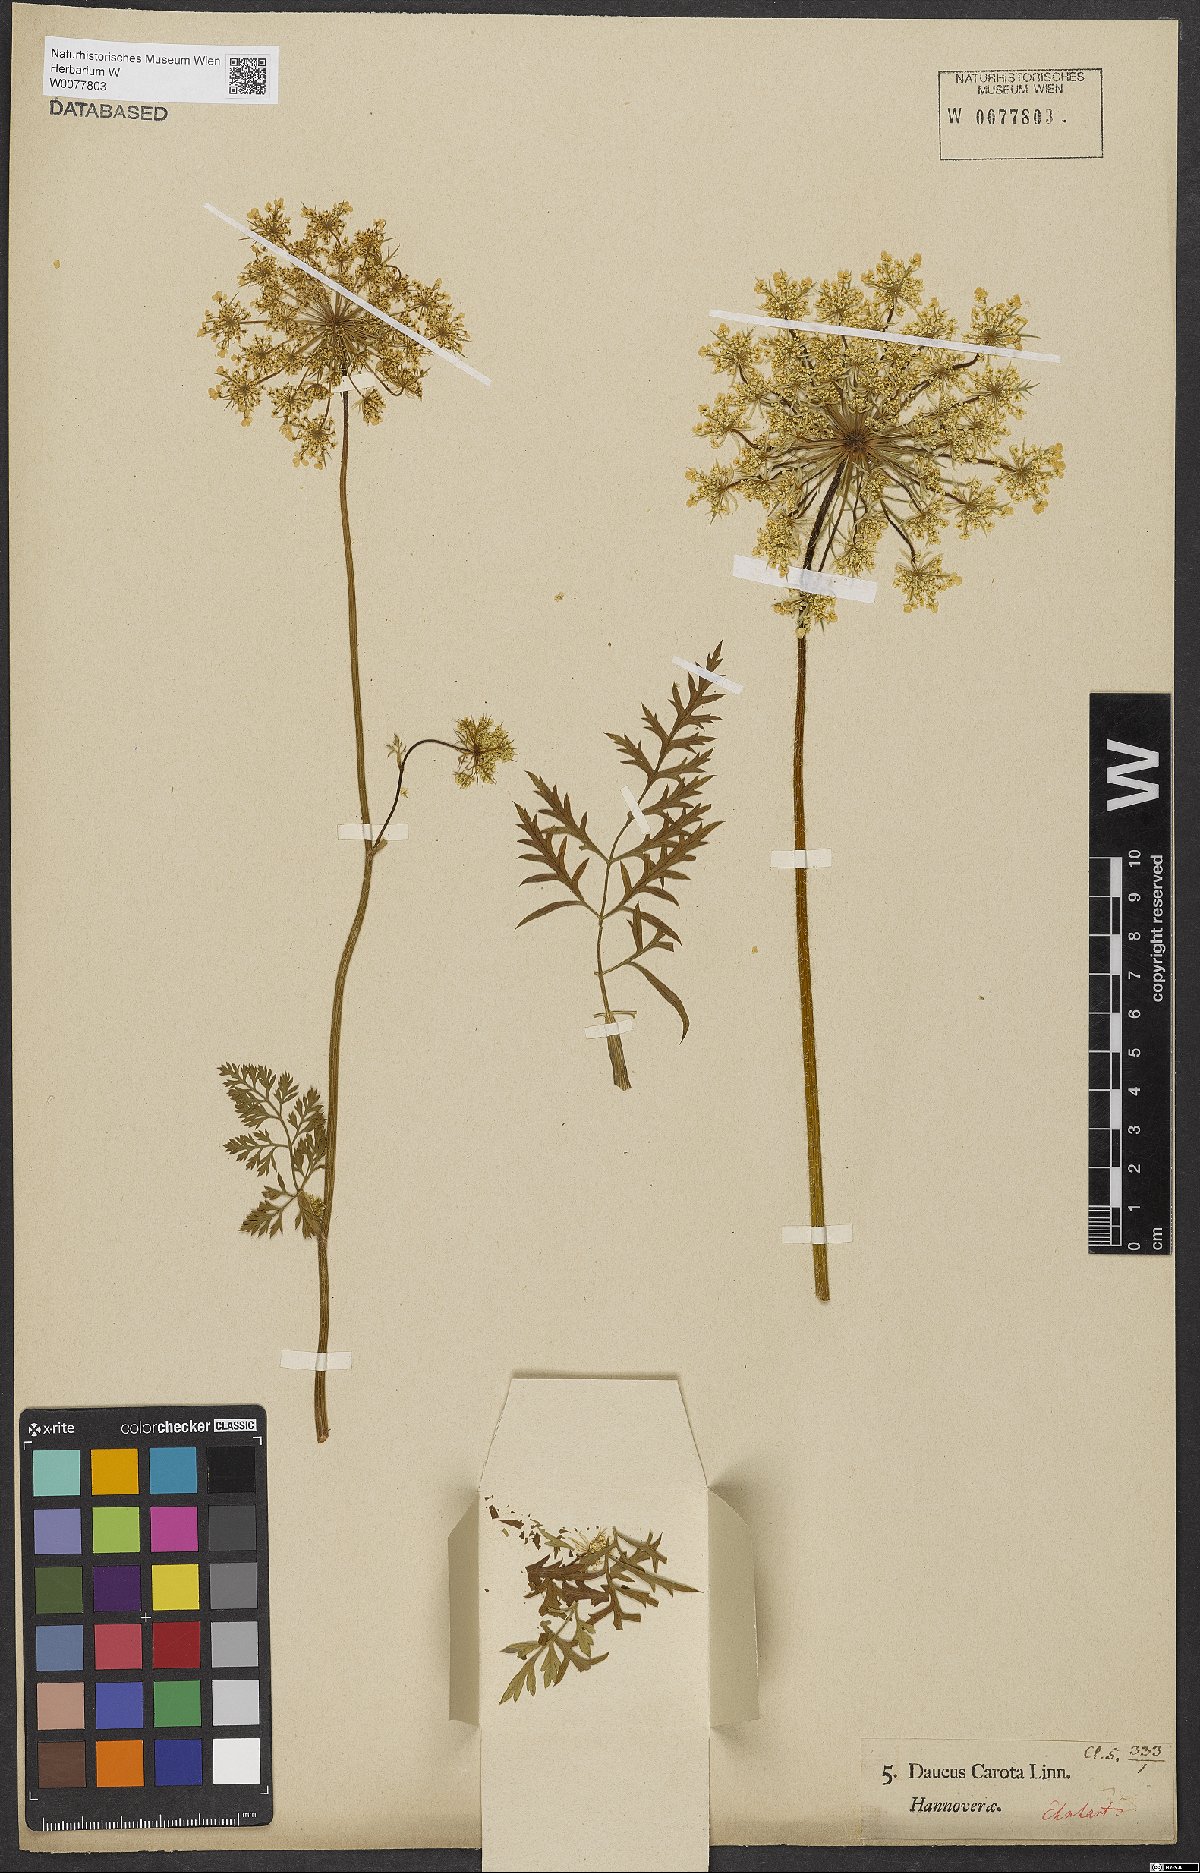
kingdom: Plantae
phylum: Tracheophyta
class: Magnoliopsida
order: Apiales
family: Apiaceae
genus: Daucus
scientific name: Daucus carota
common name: Wild carrot
